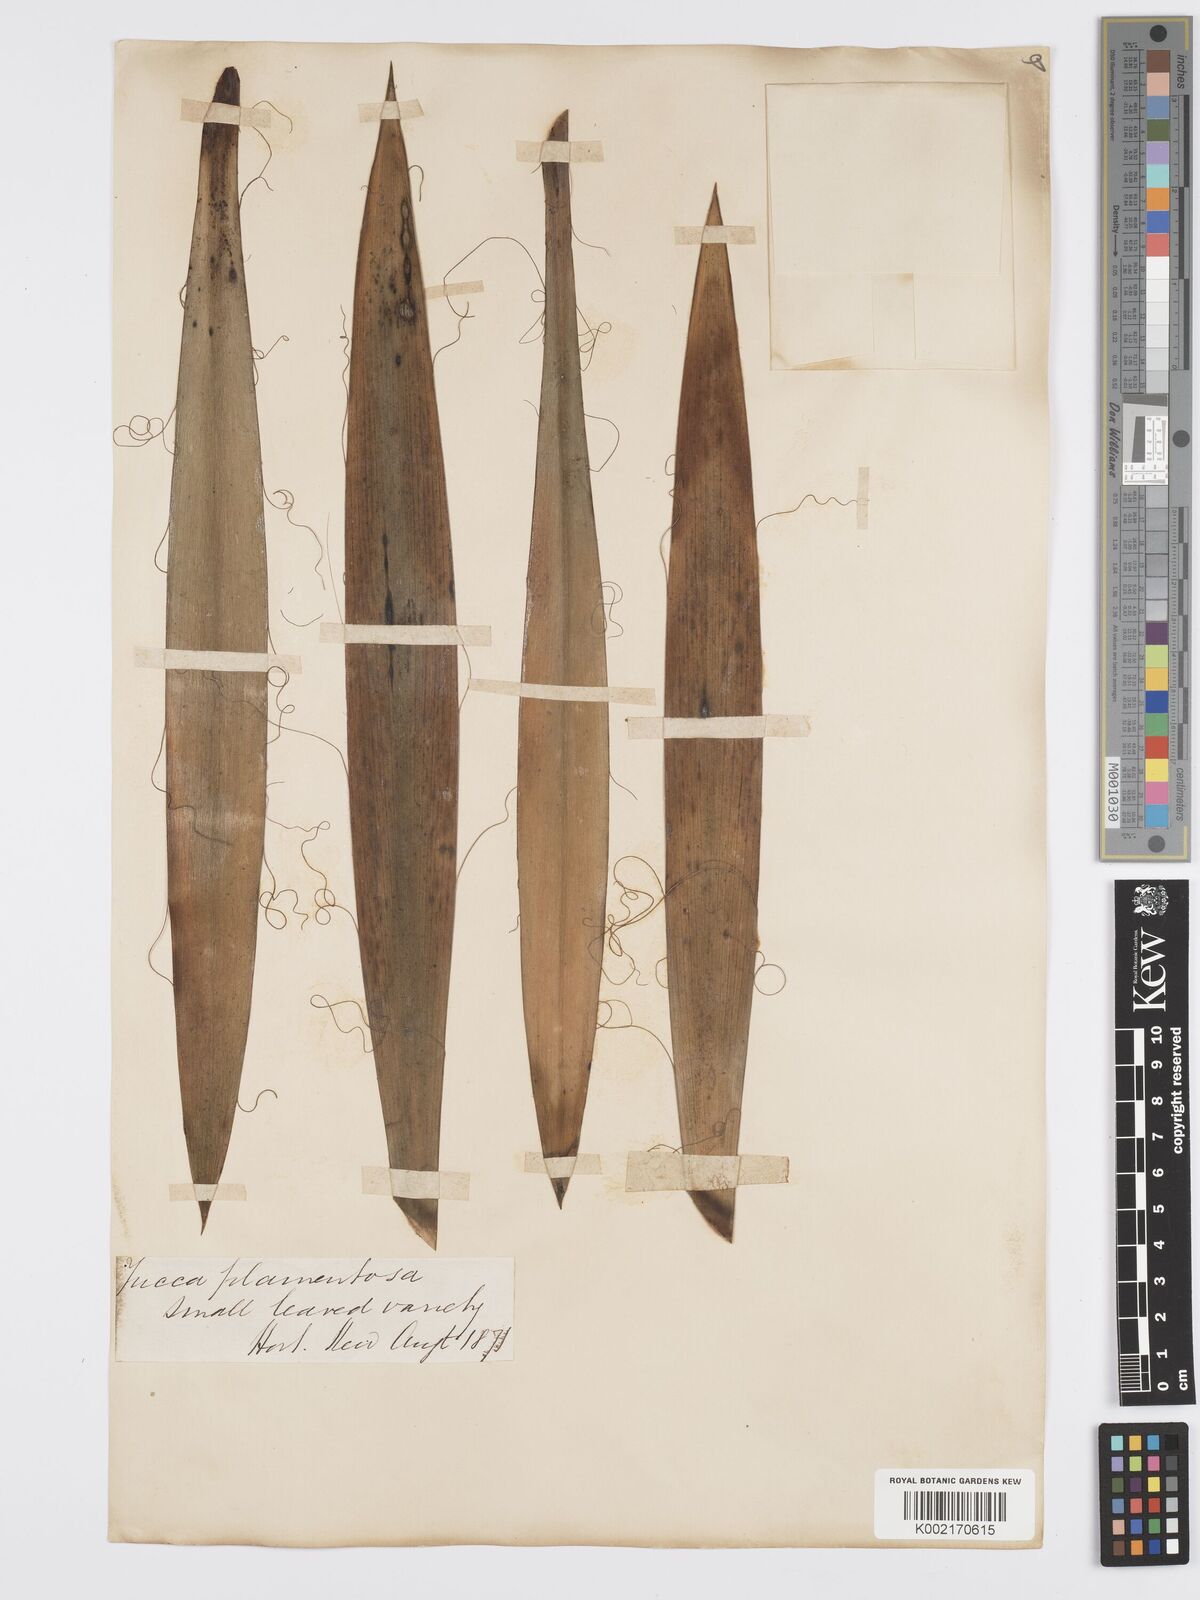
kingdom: Plantae
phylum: Tracheophyta
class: Liliopsida
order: Asparagales
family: Asparagaceae
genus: Yucca
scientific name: Yucca filamentosa
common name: Adam's-needle
